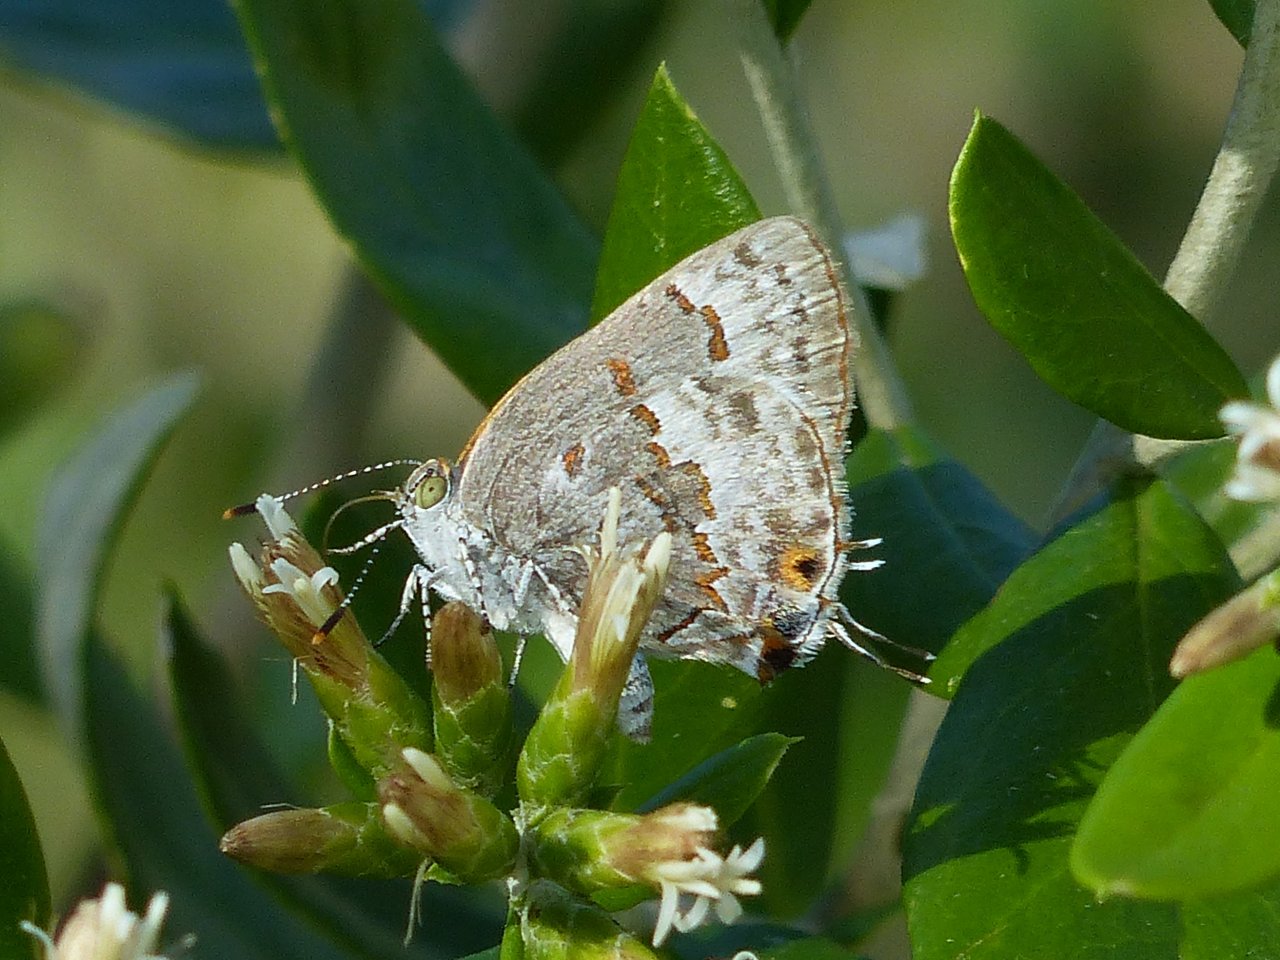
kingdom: Animalia
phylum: Arthropoda
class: Insecta
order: Lepidoptera
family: Lycaenidae
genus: Ministrymon
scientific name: Ministrymon clytie
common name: Clytie Ministreak
